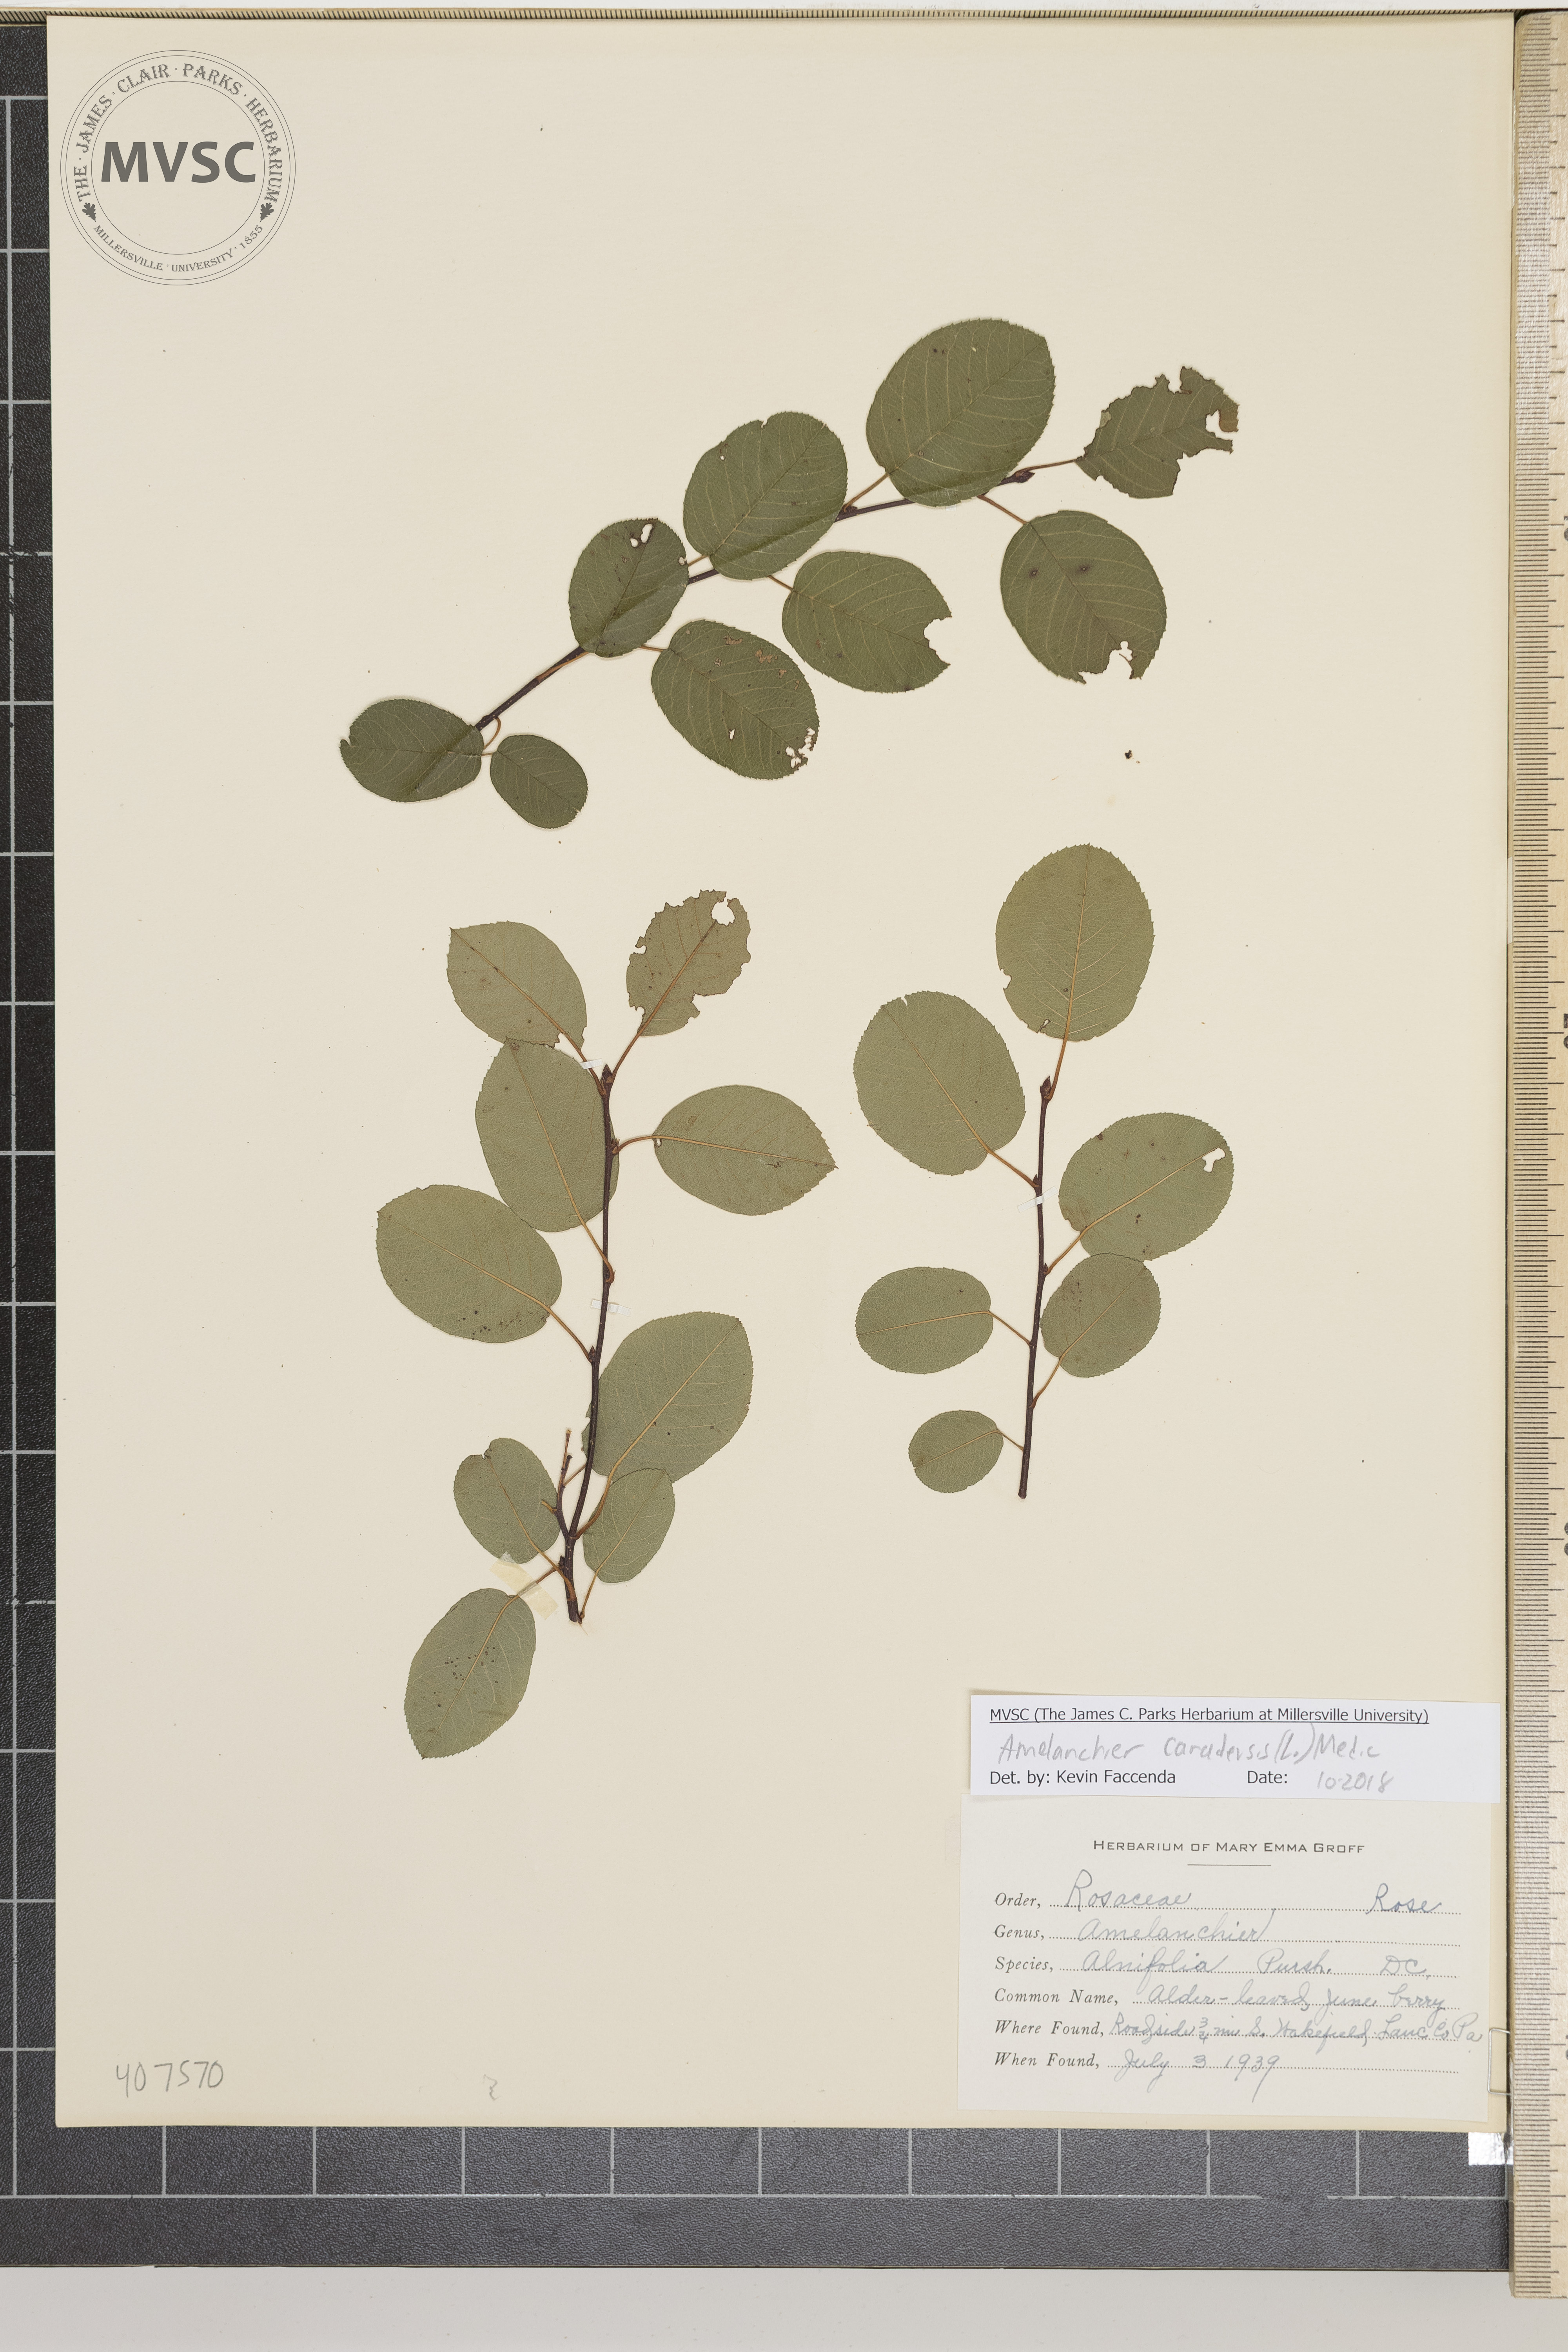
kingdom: Plantae
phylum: Tracheophyta
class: Magnoliopsida
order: Rosales
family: Rosaceae
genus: Amelanchier
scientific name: Amelanchier canadensis
